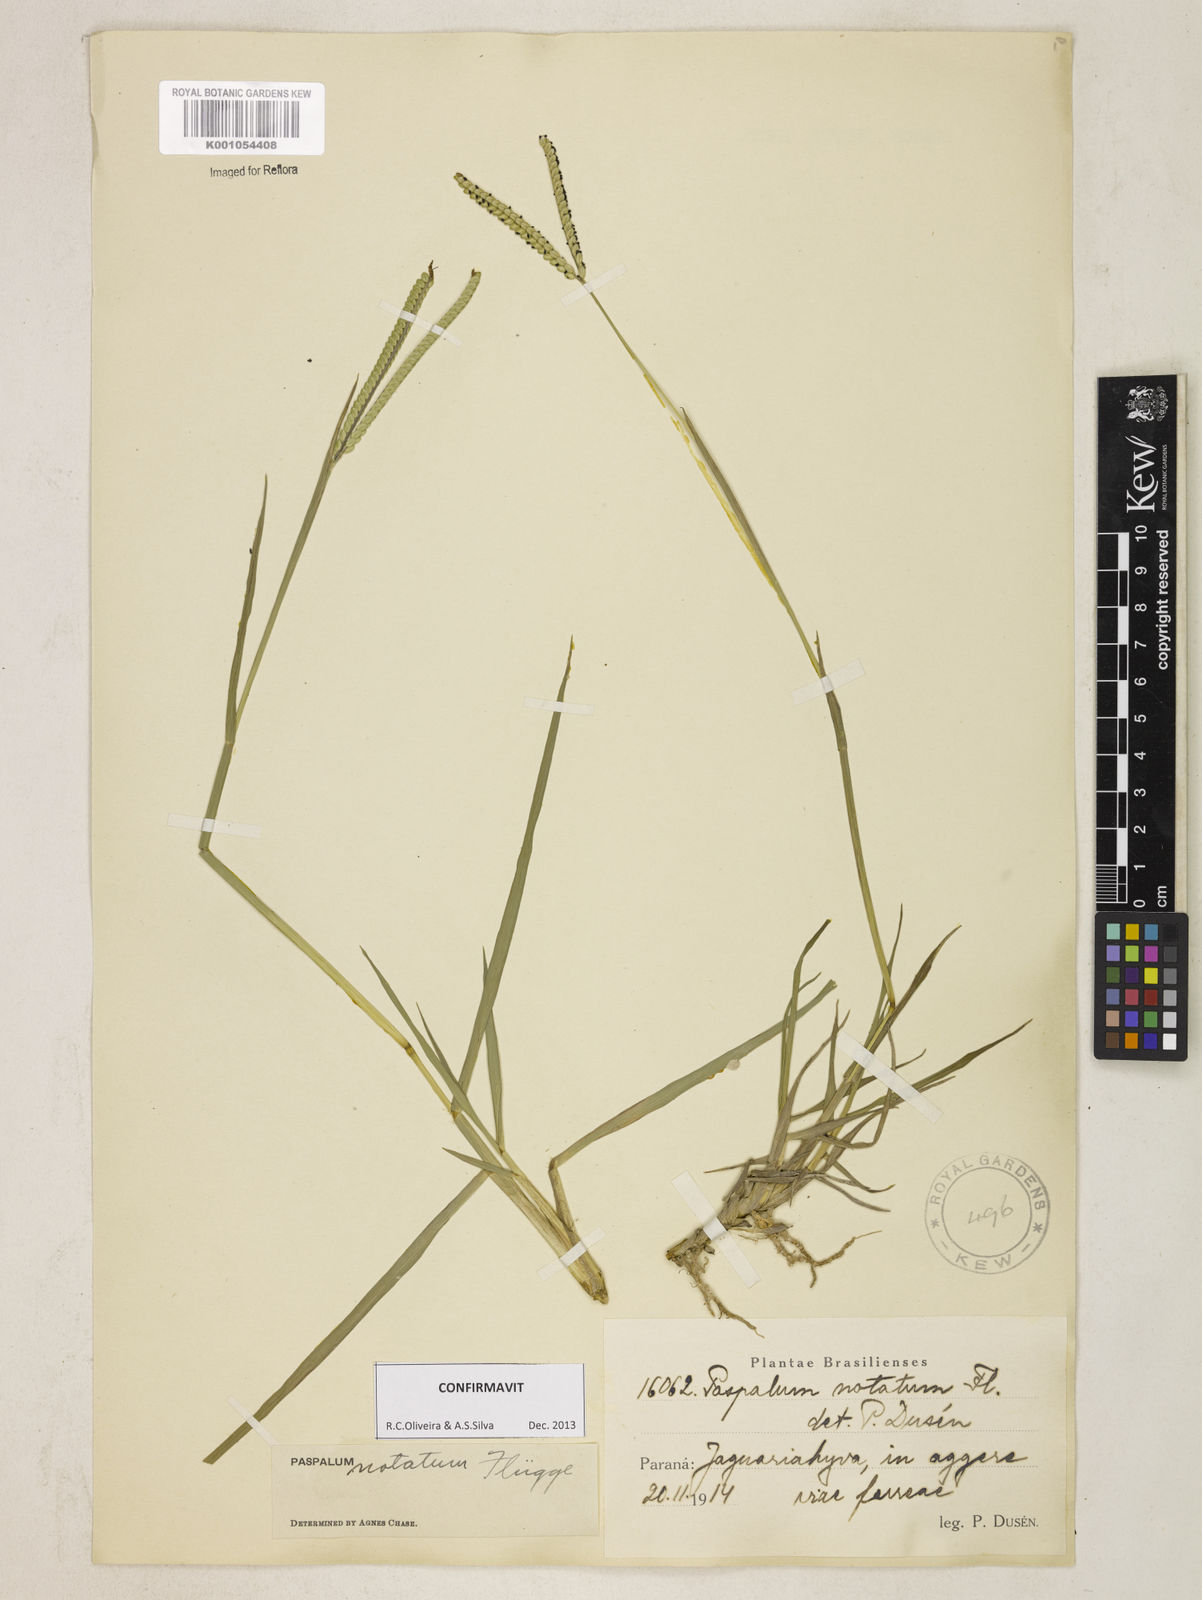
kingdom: Plantae
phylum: Tracheophyta
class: Liliopsida
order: Poales
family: Poaceae
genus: Paspalum
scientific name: Paspalum
